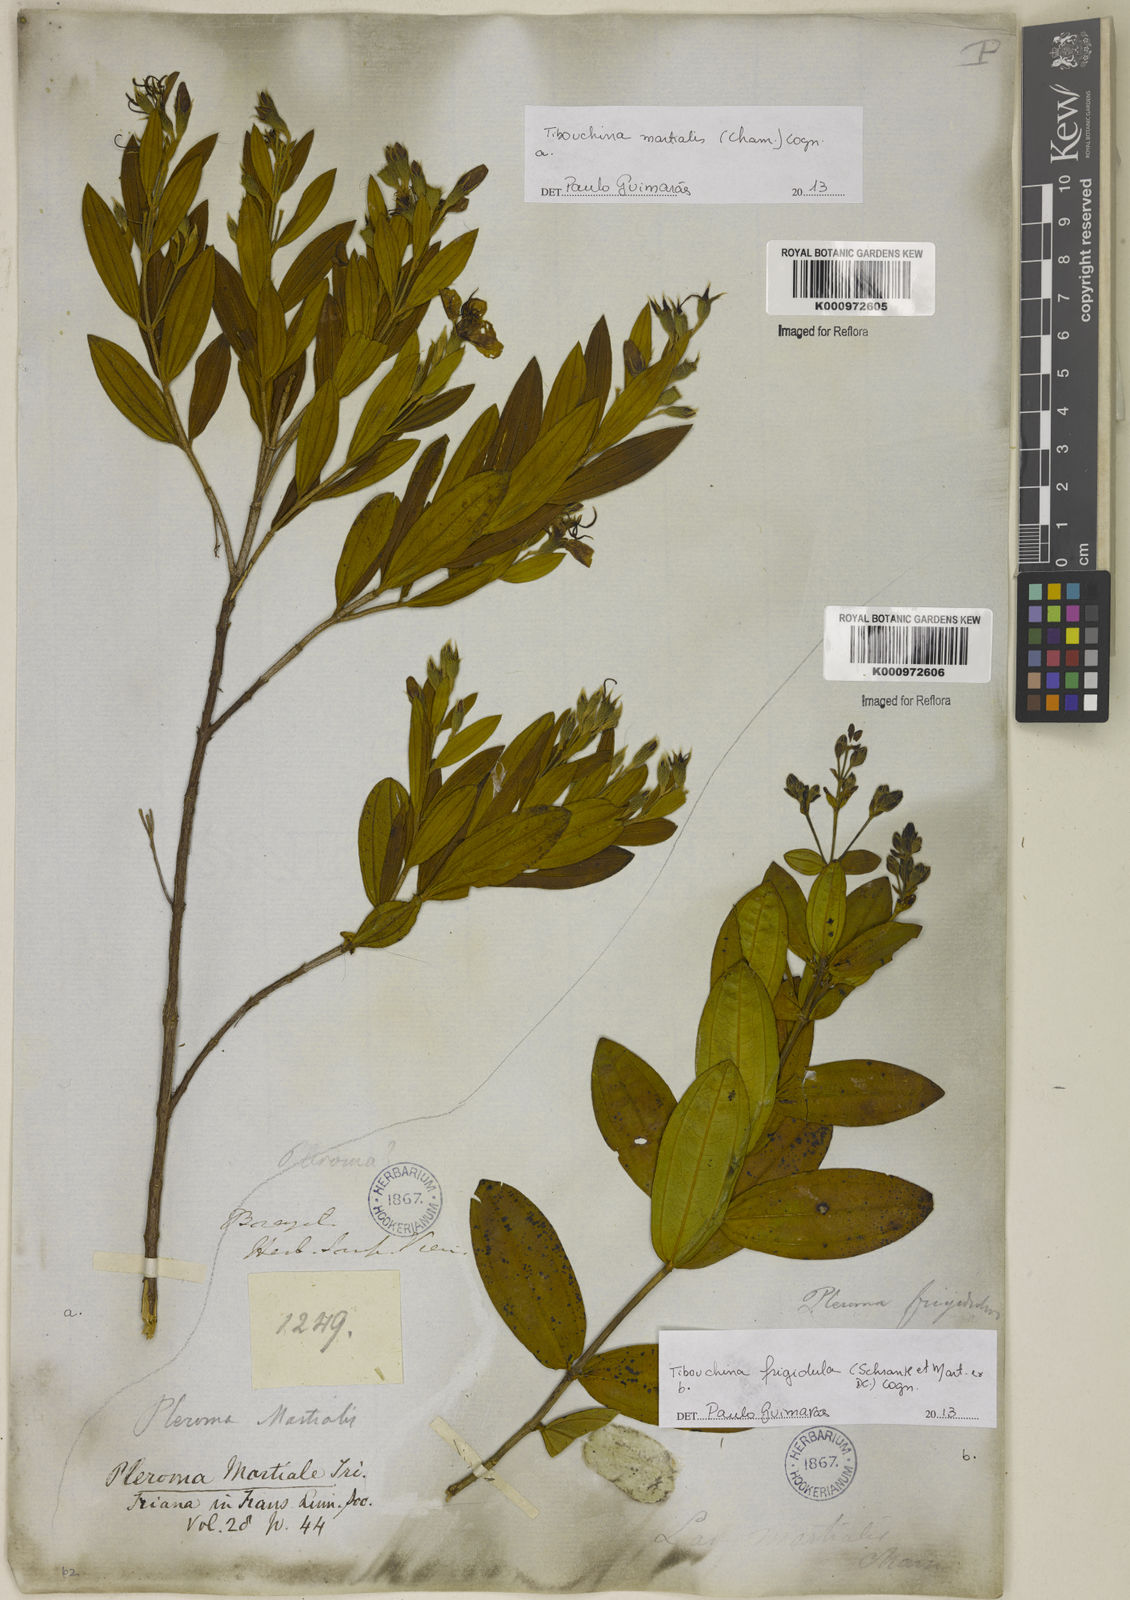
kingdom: Plantae
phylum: Tracheophyta
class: Magnoliopsida
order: Myrtales
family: Melastomataceae
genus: Pleroma
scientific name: Pleroma martiale
